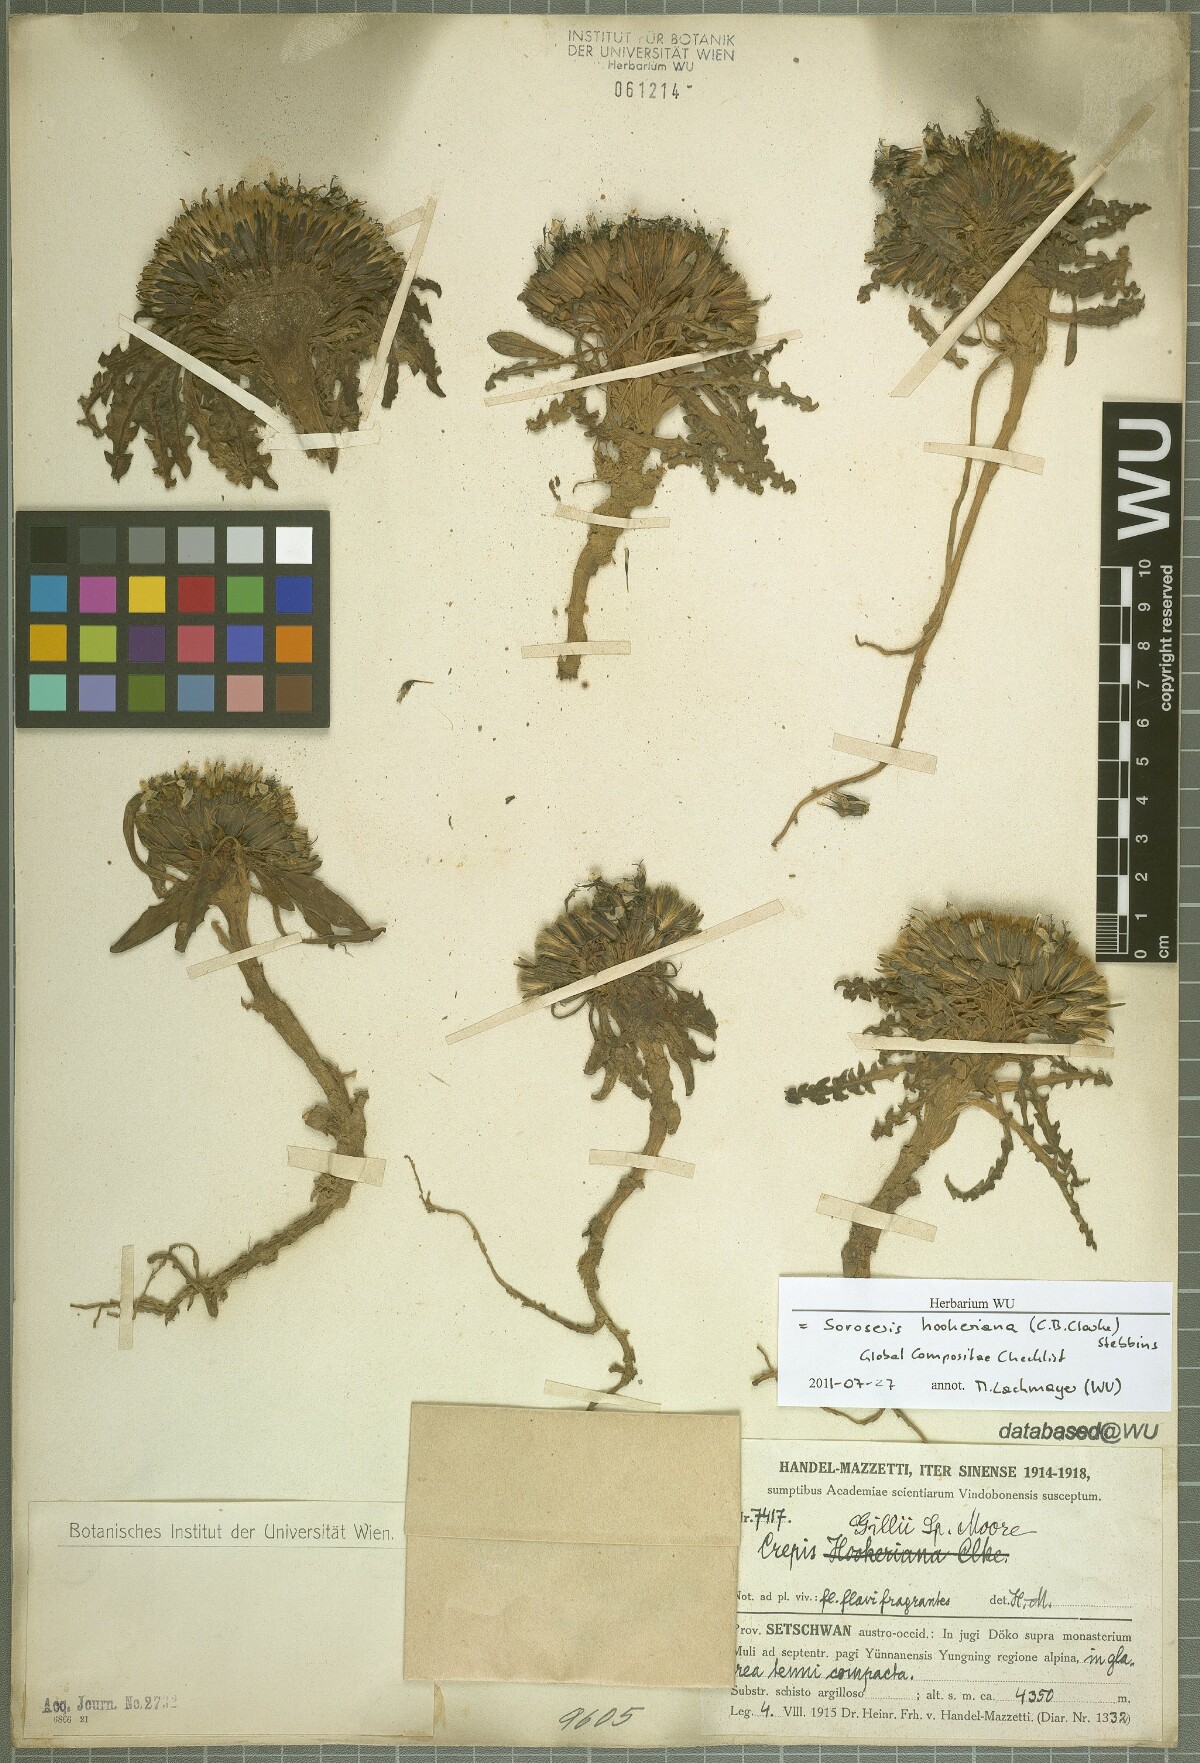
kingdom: Plantae
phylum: Tracheophyta
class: Magnoliopsida
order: Asterales
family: Asteraceae
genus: Soroseris
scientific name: Soroseris trichocarpa
